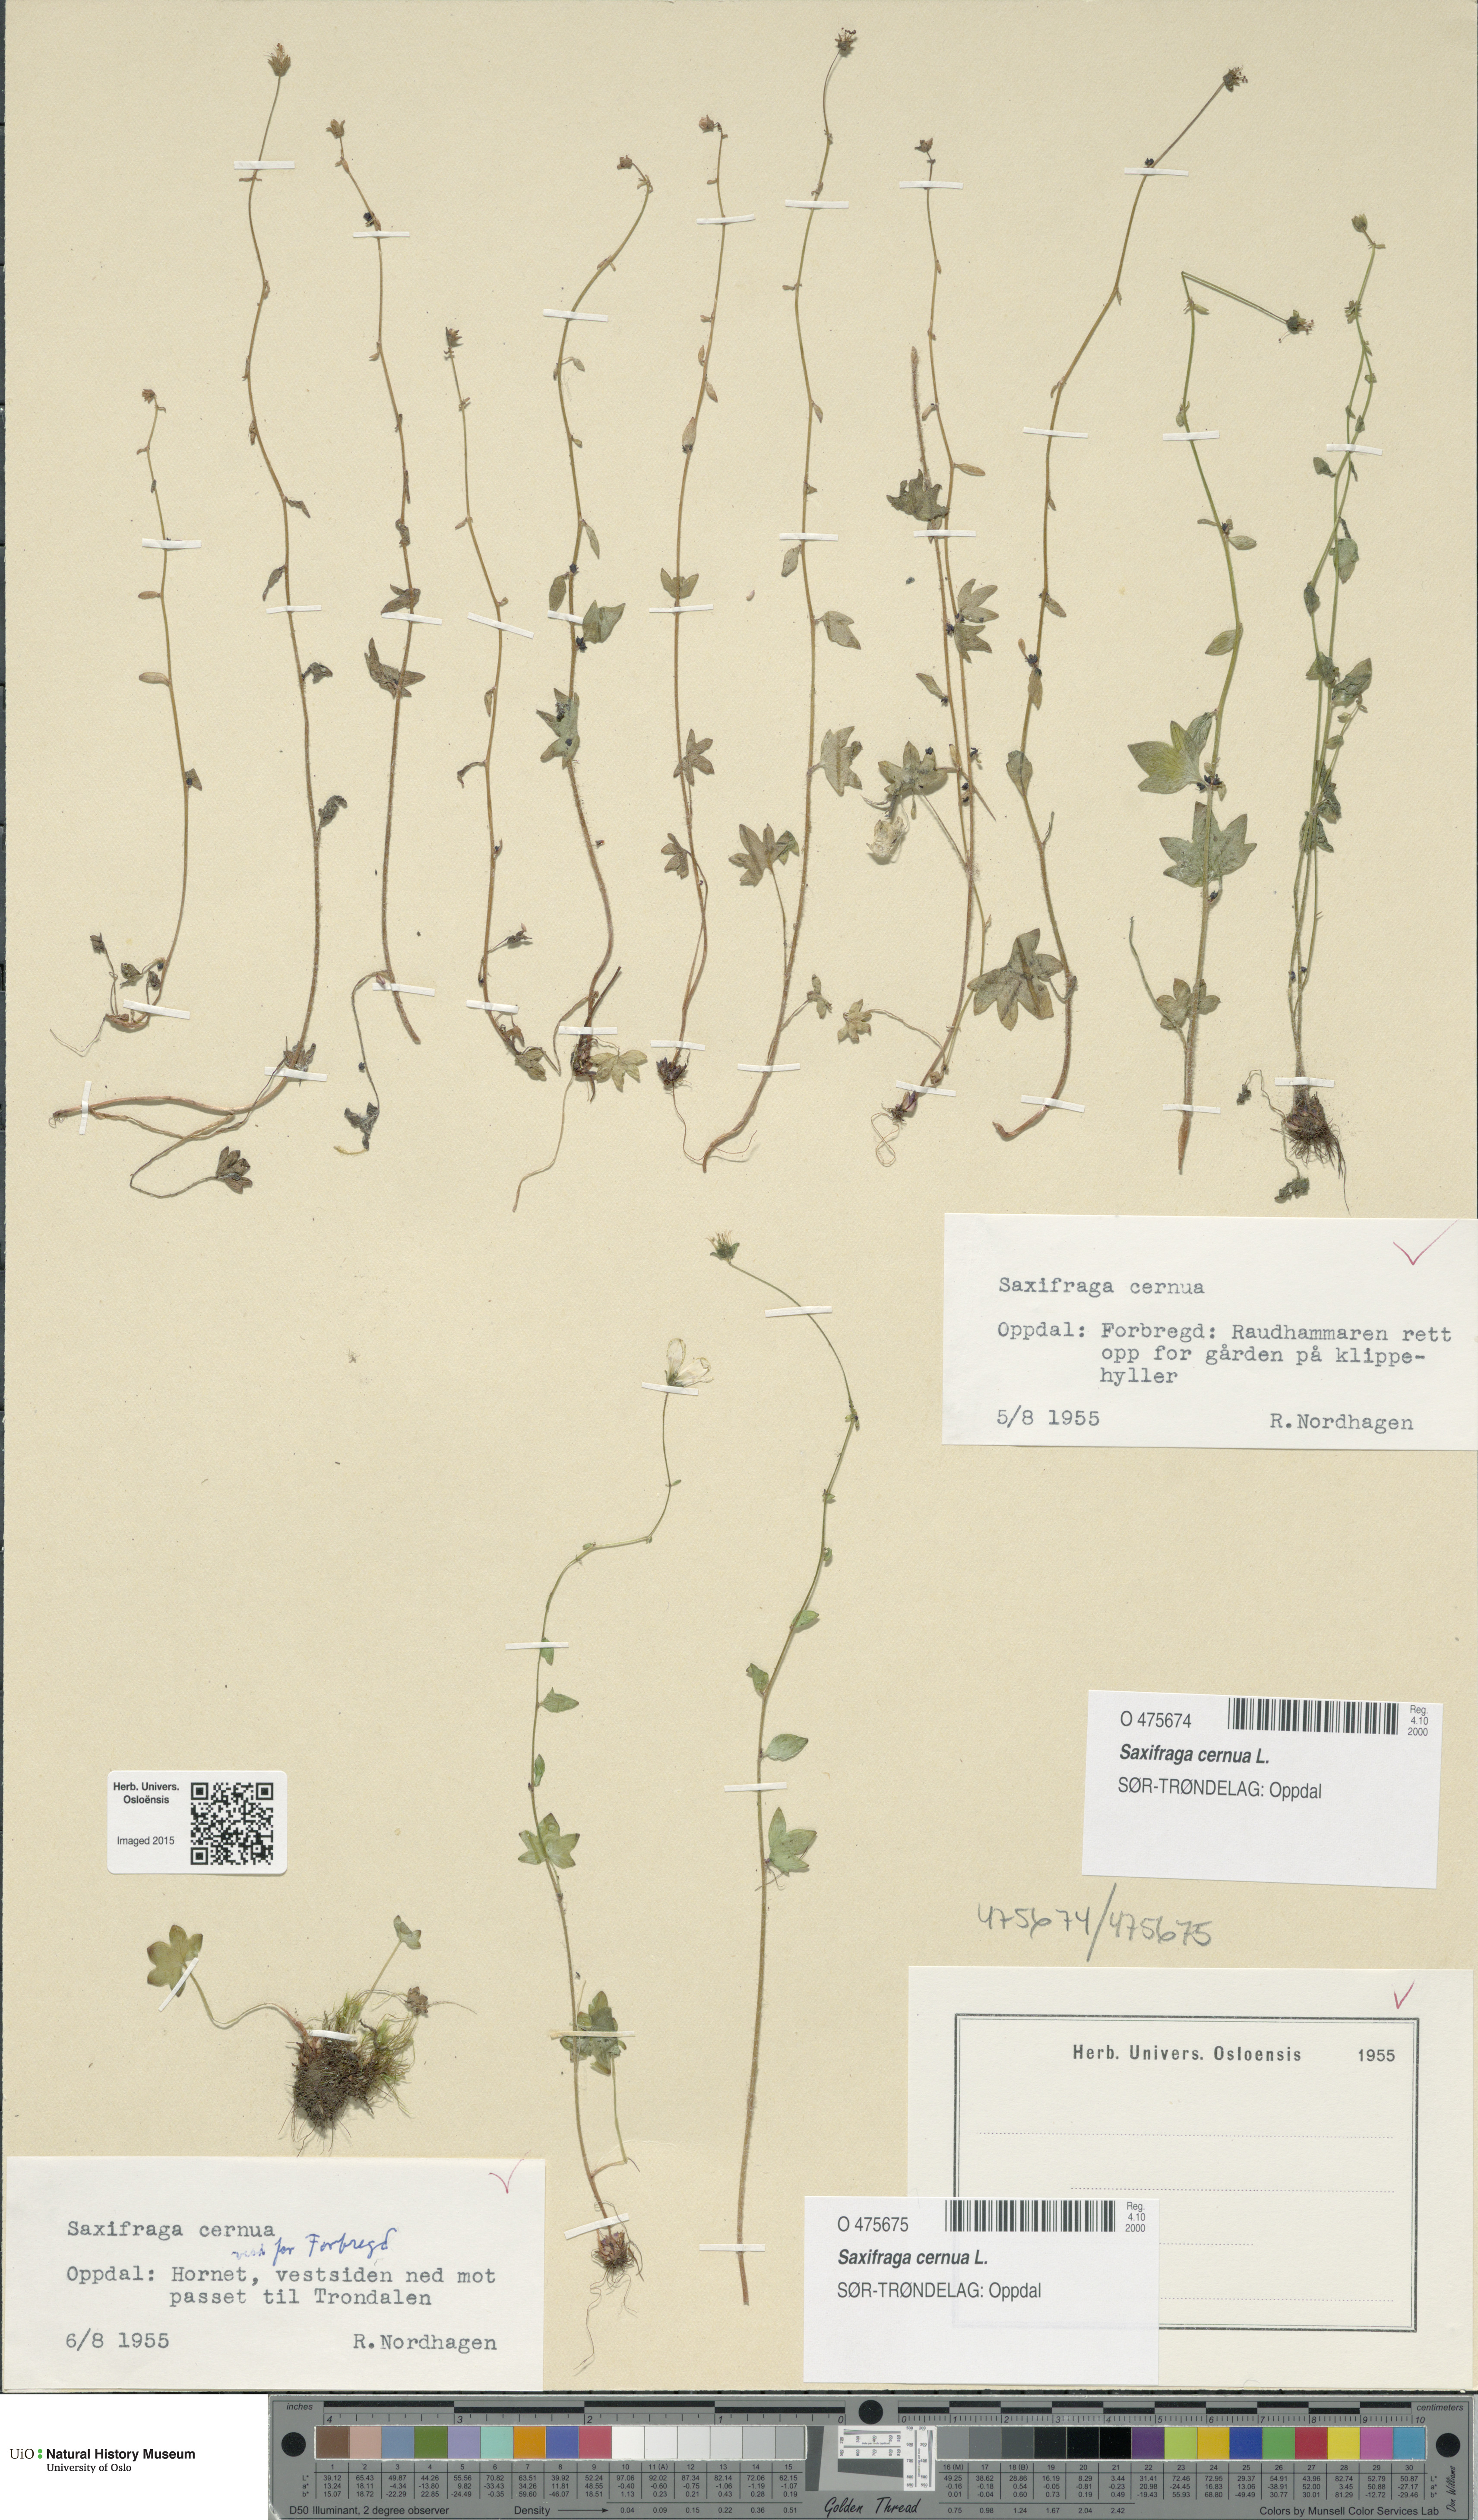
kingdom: Plantae
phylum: Tracheophyta
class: Magnoliopsida
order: Saxifragales
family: Saxifragaceae
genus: Saxifraga
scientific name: Saxifraga cernua
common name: Drooping saxifrage
